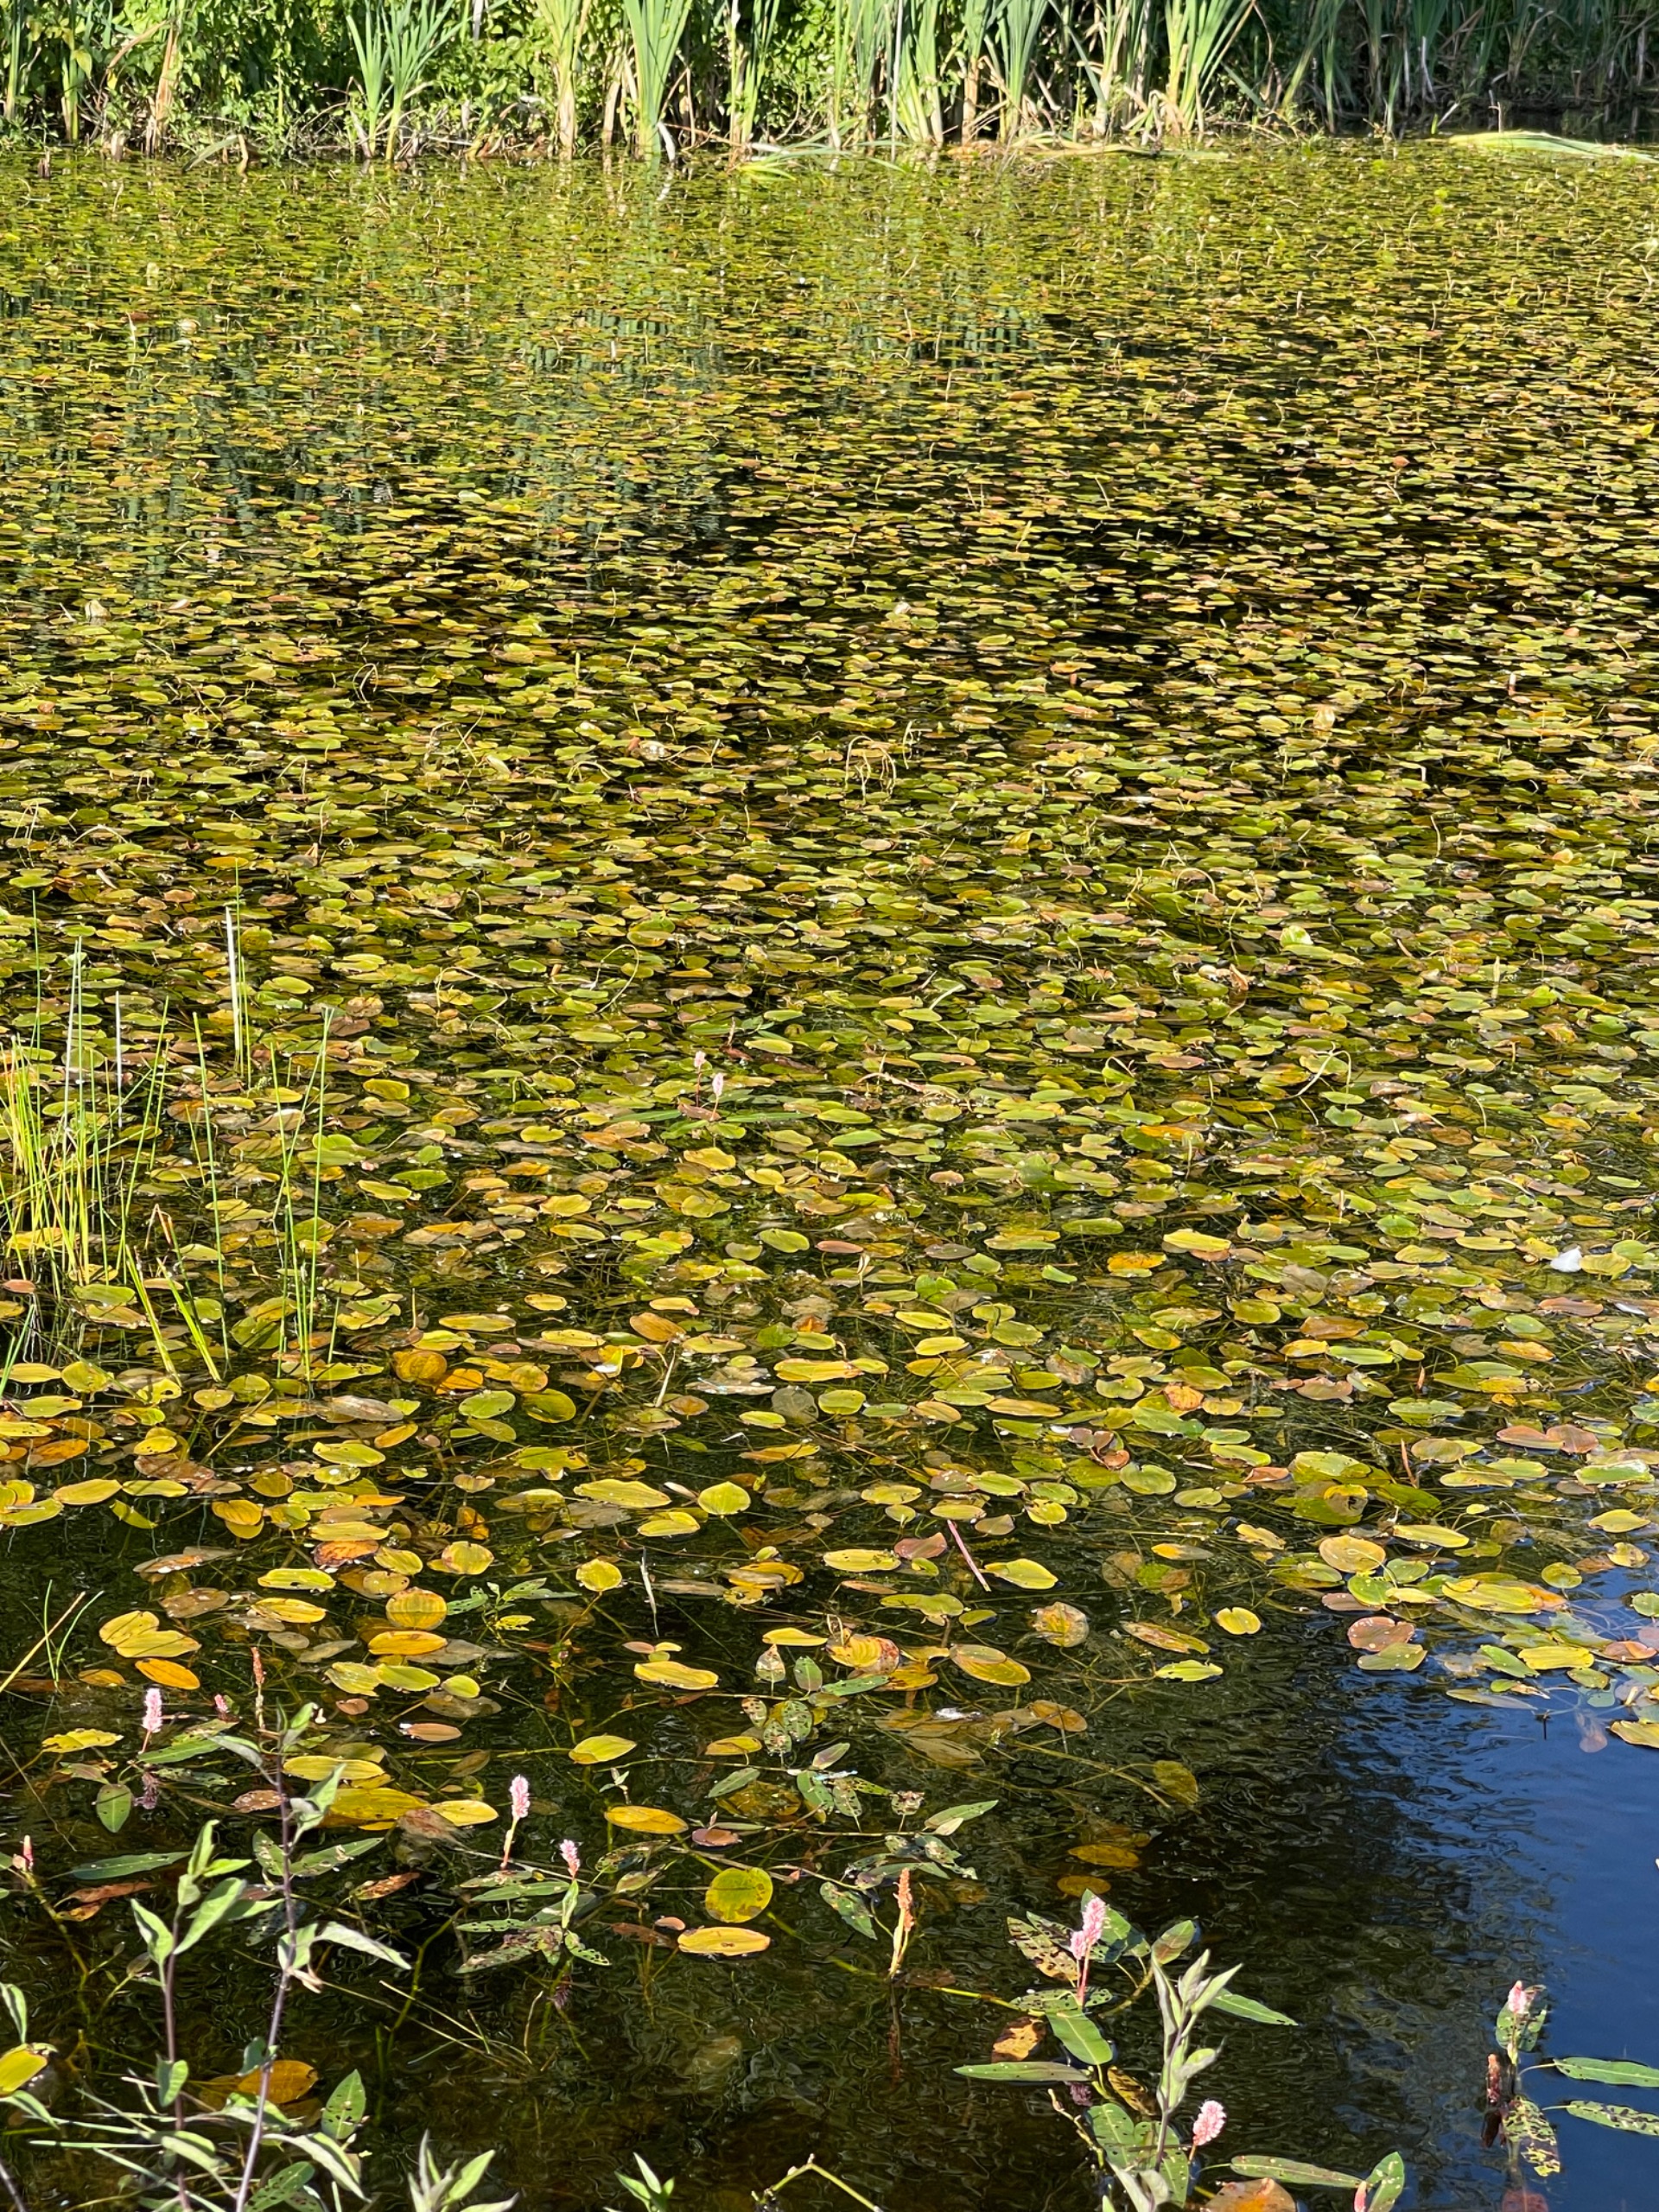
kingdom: Plantae
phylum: Tracheophyta
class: Liliopsida
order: Alismatales
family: Potamogetonaceae
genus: Potamogeton
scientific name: Potamogeton natans
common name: Svømmende vandaks
